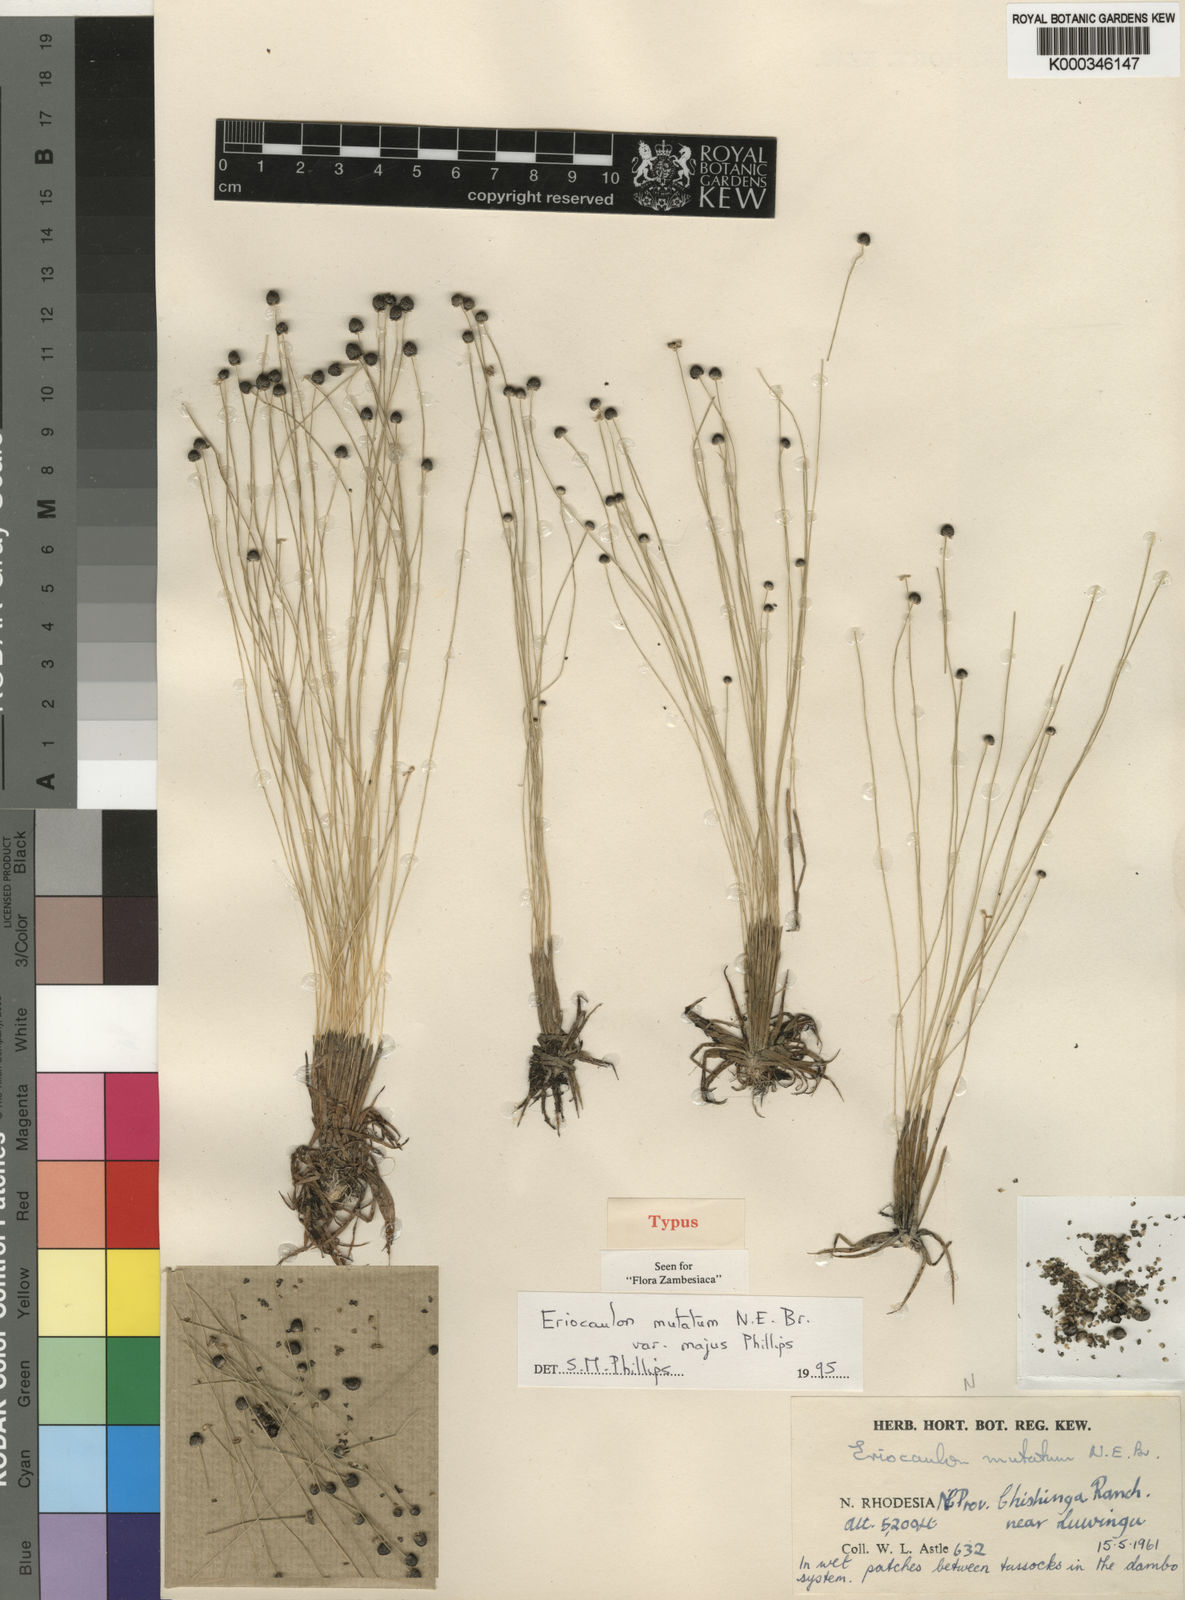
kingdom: Plantae
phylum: Tracheophyta
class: Liliopsida
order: Poales
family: Eriocaulaceae
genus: Eriocaulon
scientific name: Eriocaulon mutatum
